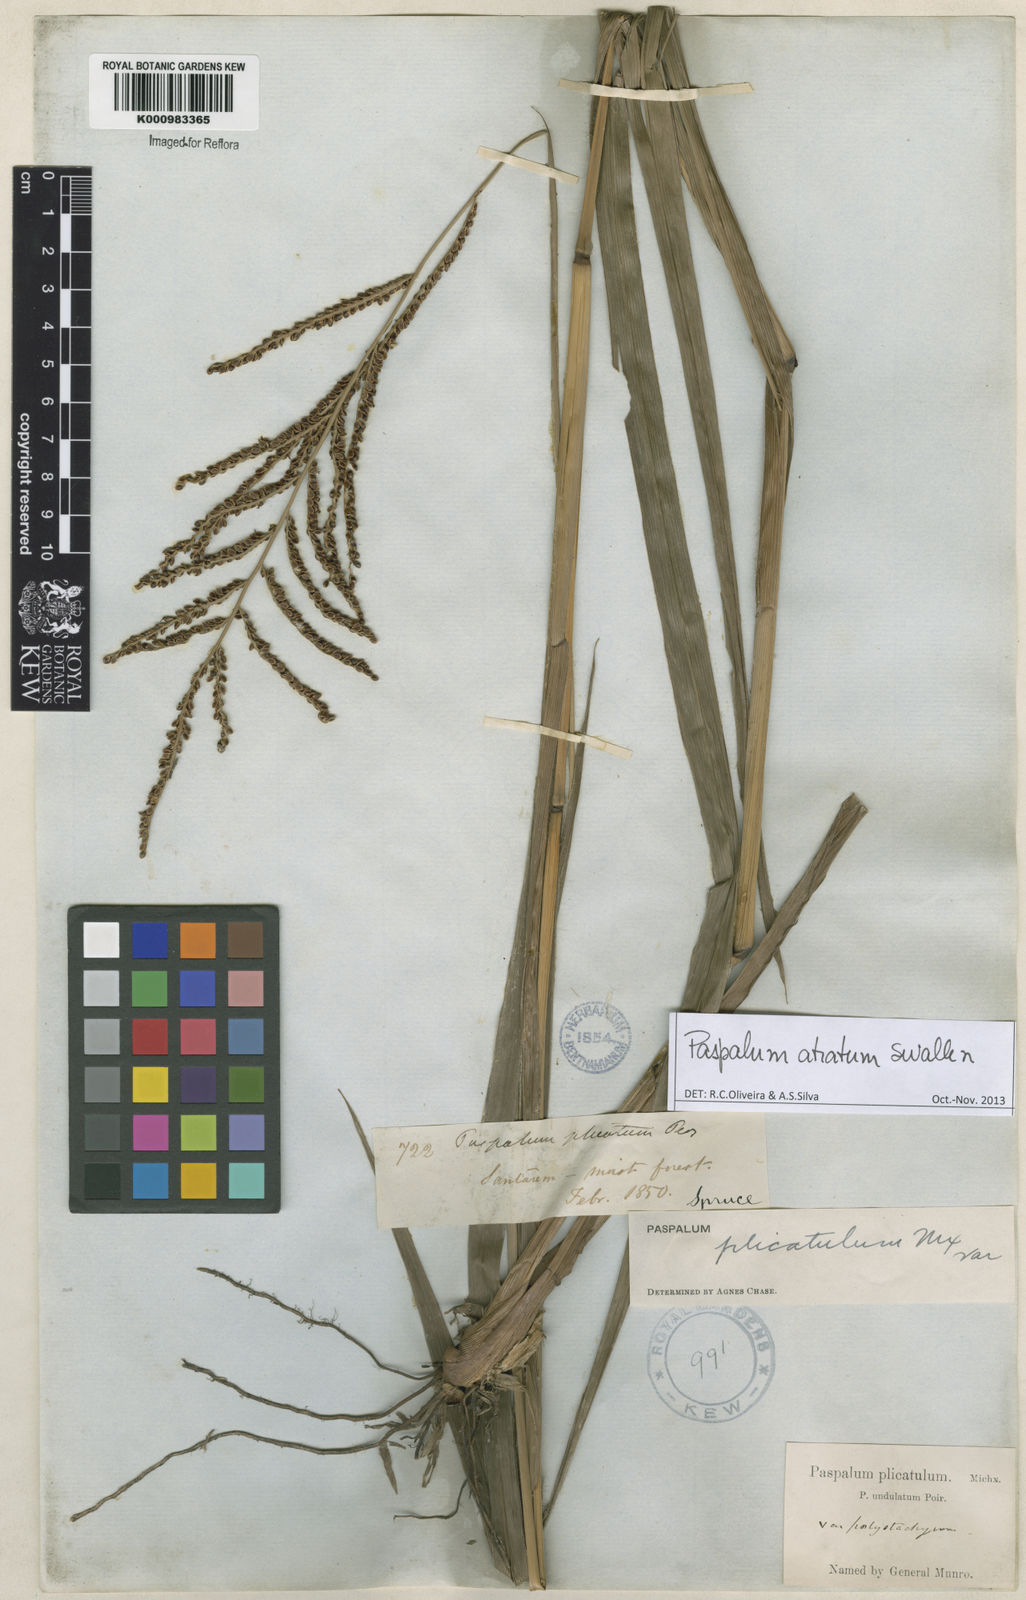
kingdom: Plantae
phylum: Tracheophyta
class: Liliopsida
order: Poales
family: Poaceae
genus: Paspalum
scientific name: Paspalum atratum
